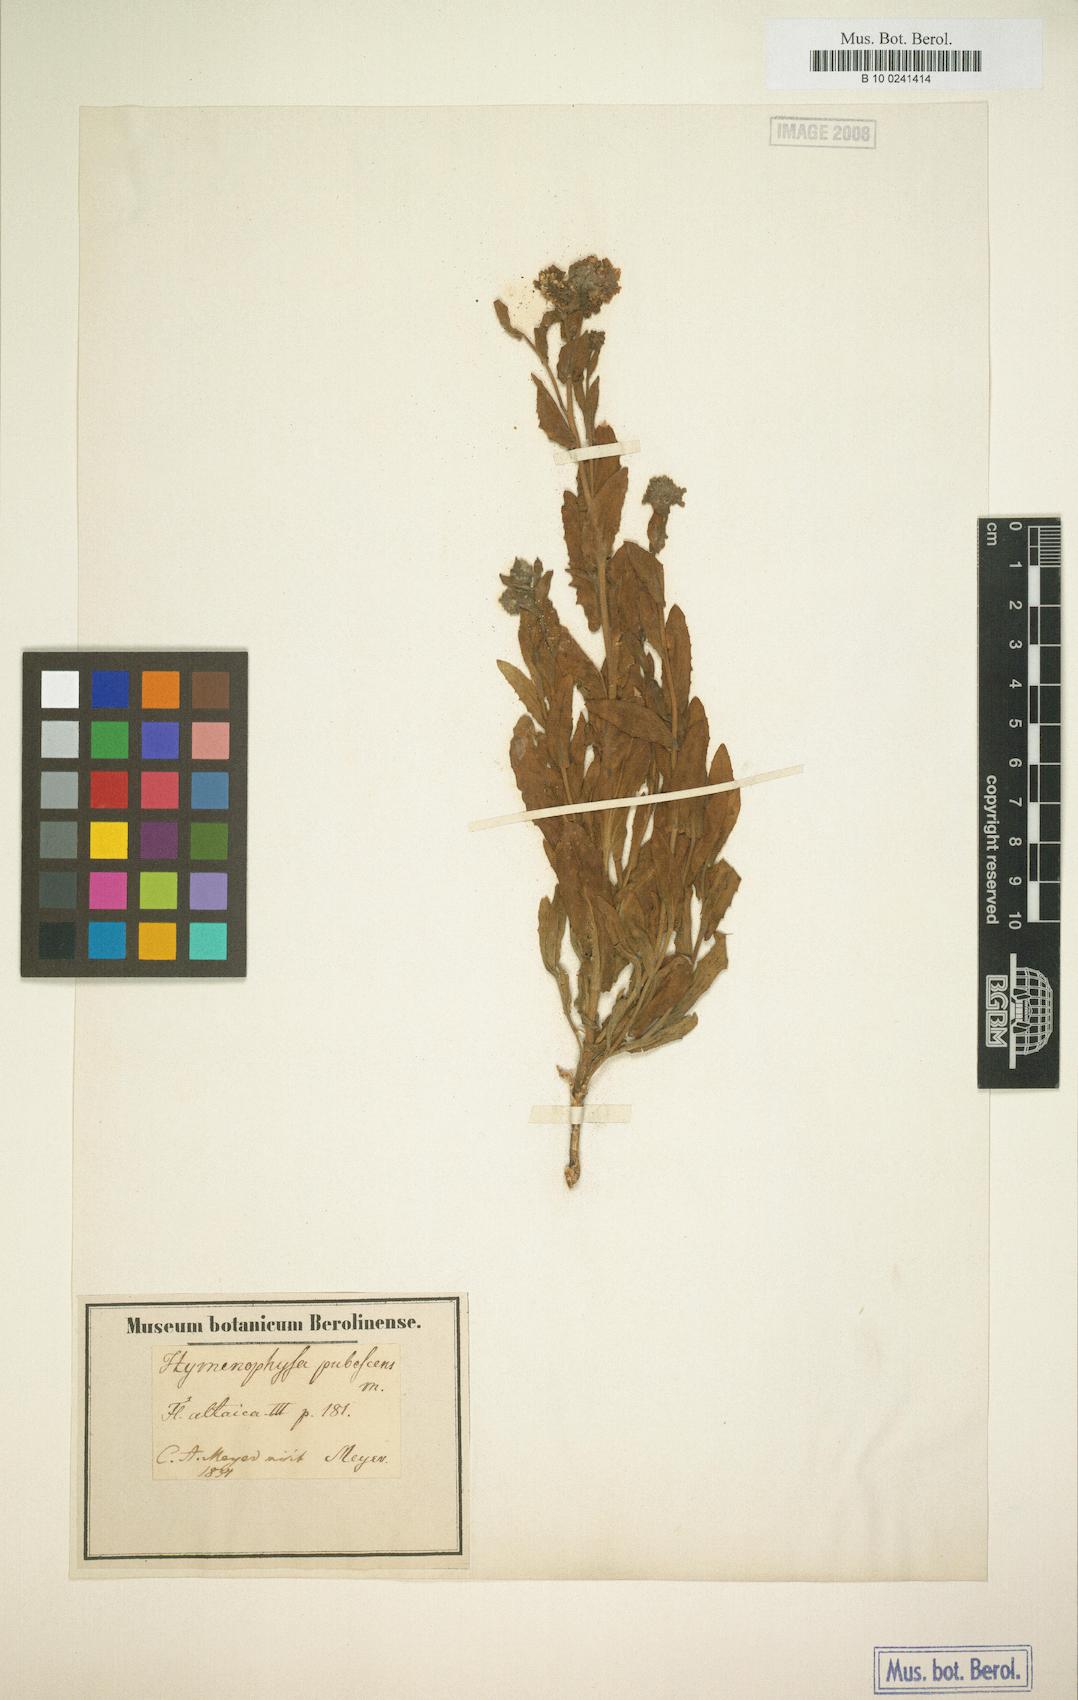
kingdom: Plantae
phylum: Tracheophyta
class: Magnoliopsida
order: Brassicales
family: Brassicaceae
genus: Lepidium
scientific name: Lepidium appelianum
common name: Hairy whitetop
